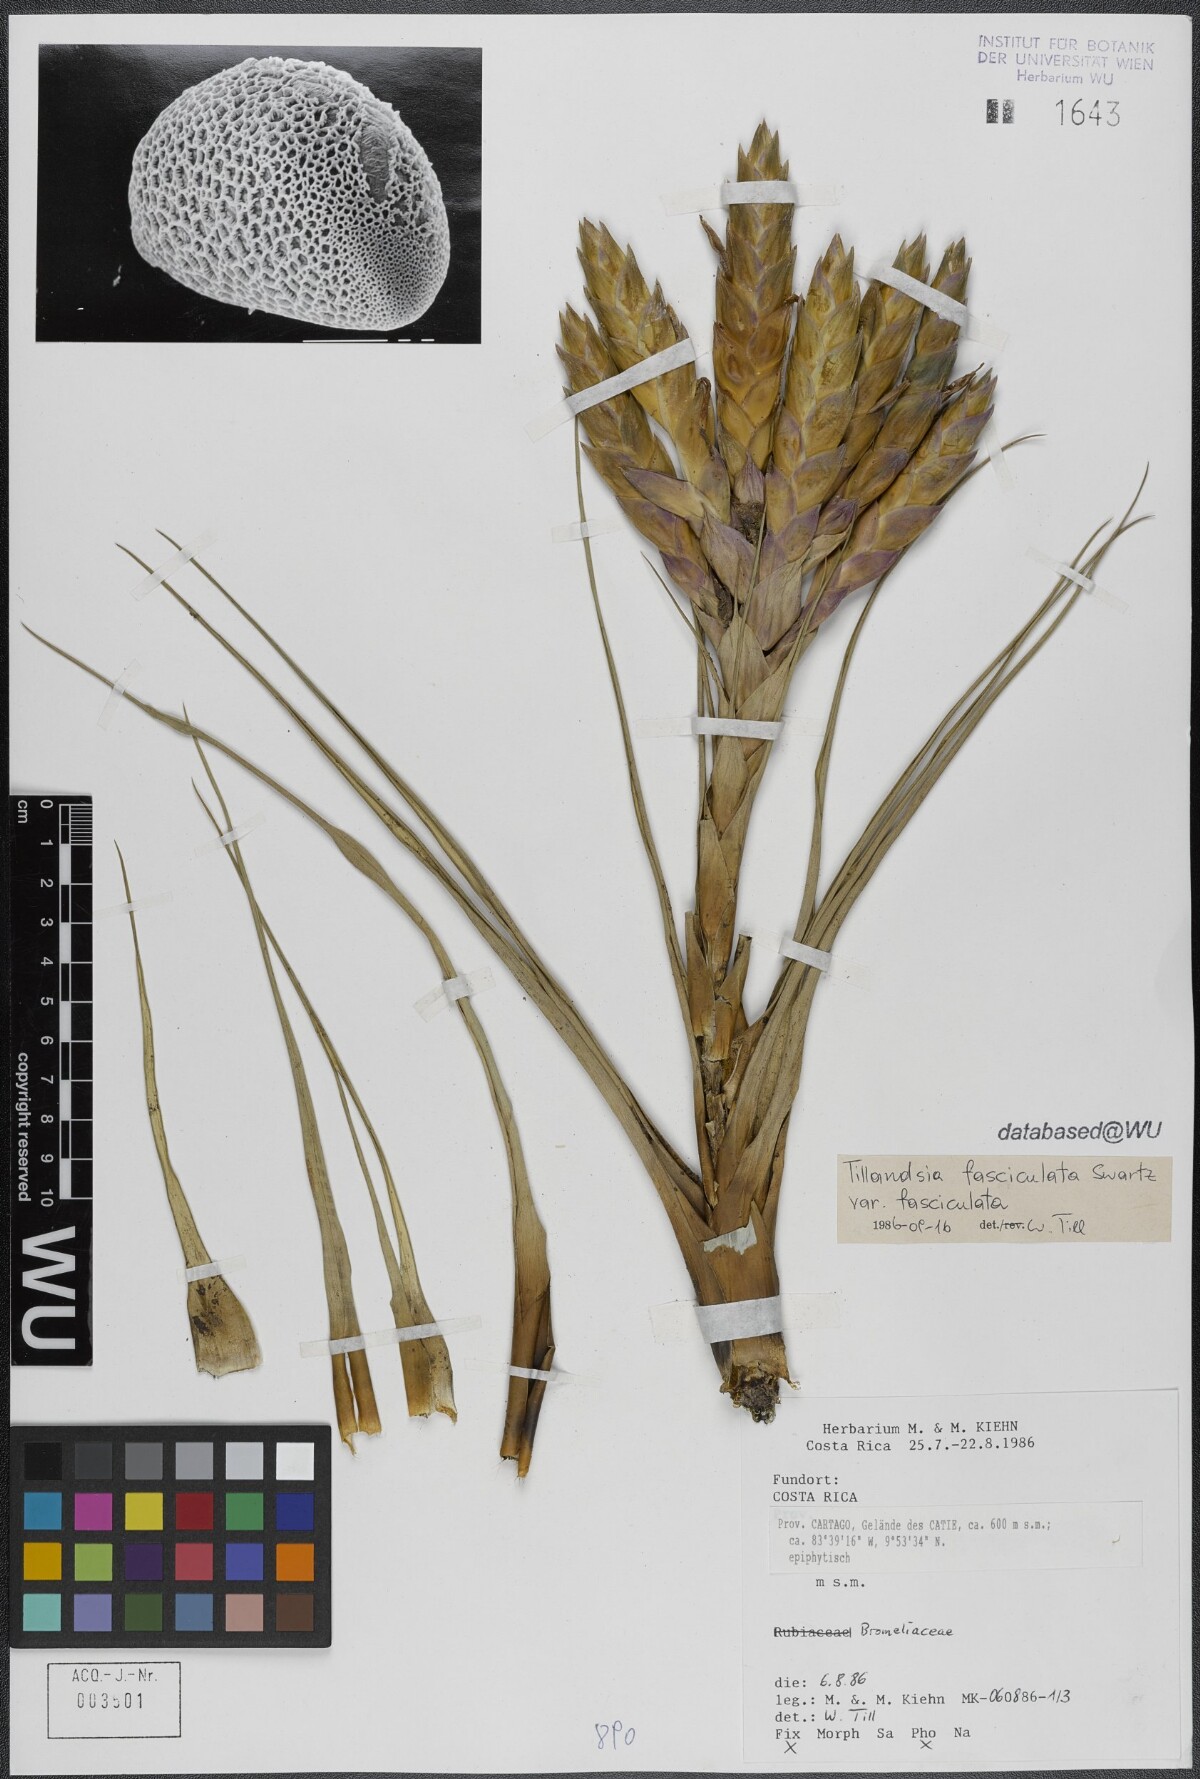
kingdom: Plantae
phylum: Tracheophyta
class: Liliopsida
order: Poales
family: Bromeliaceae
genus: Tillandsia
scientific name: Tillandsia fasciculata
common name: Giant airplant
